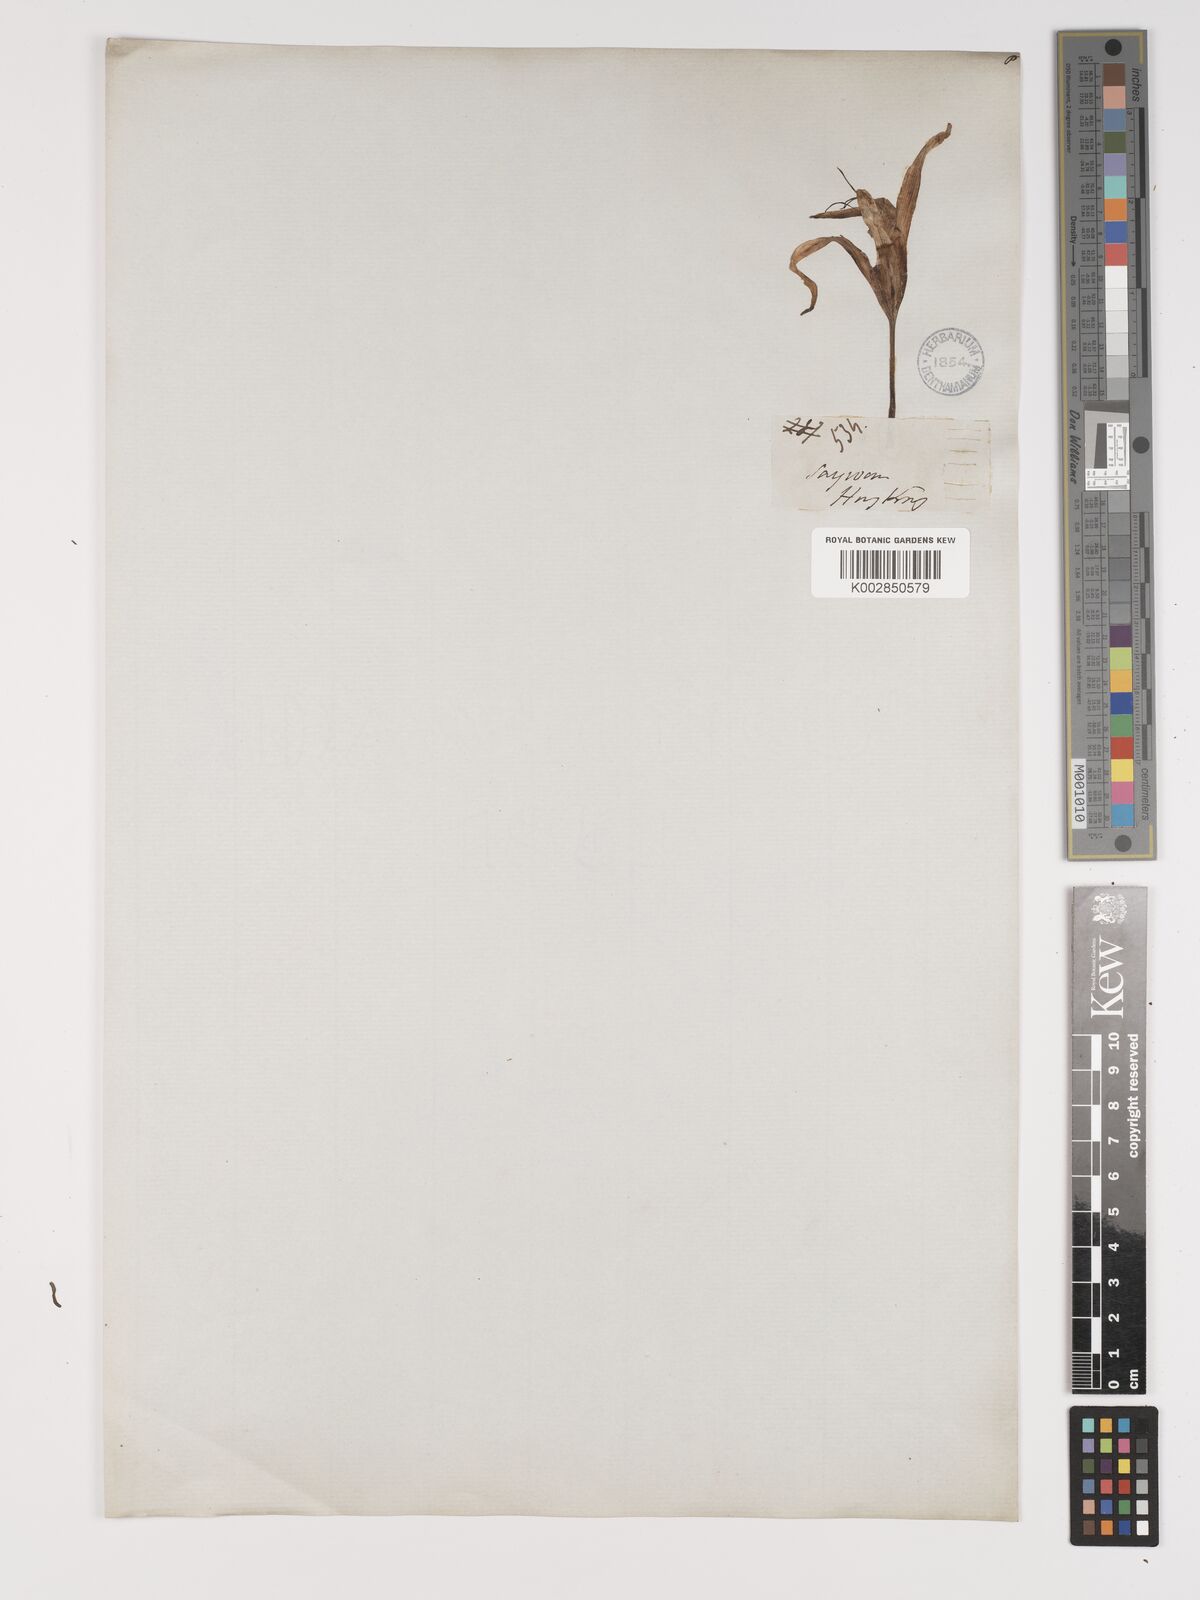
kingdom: Plantae
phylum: Tracheophyta
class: Liliopsida
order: Asparagales
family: Amaryllidaceae
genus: Crinum
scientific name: Crinum
